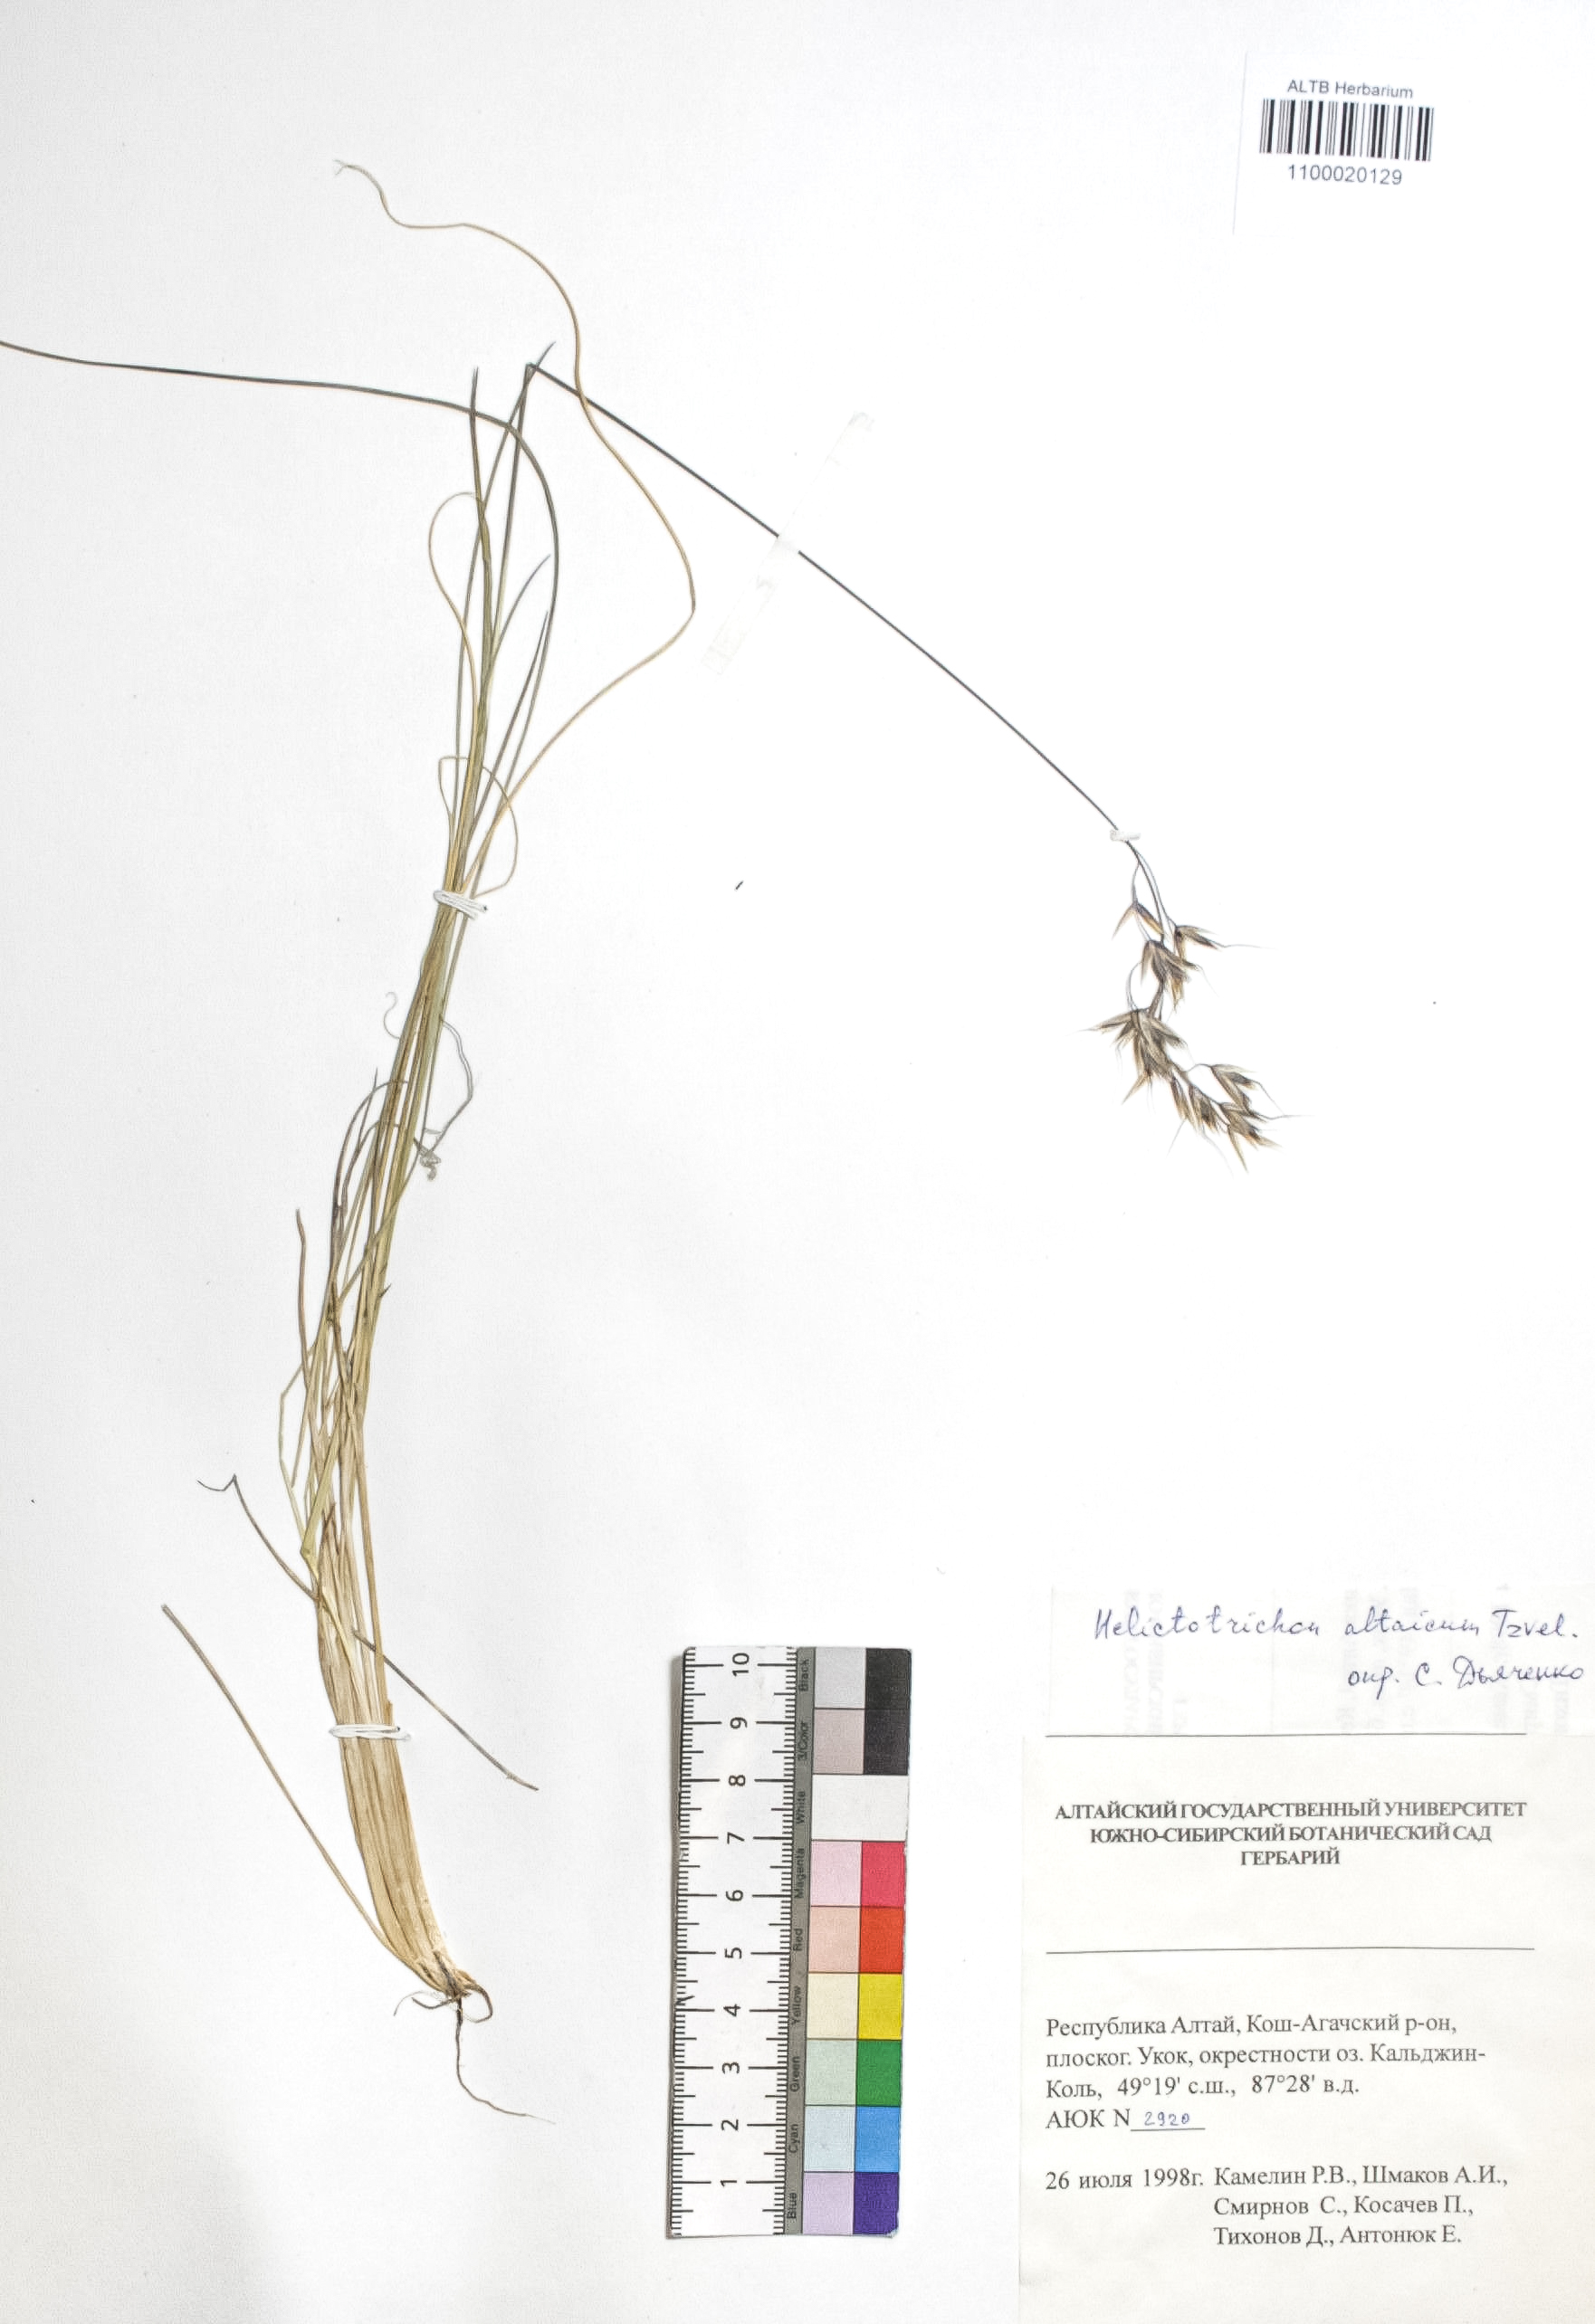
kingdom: Plantae
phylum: Tracheophyta
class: Liliopsida
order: Poales
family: Poaceae
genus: Helictotrichon
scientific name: Helictotrichon desertorum
